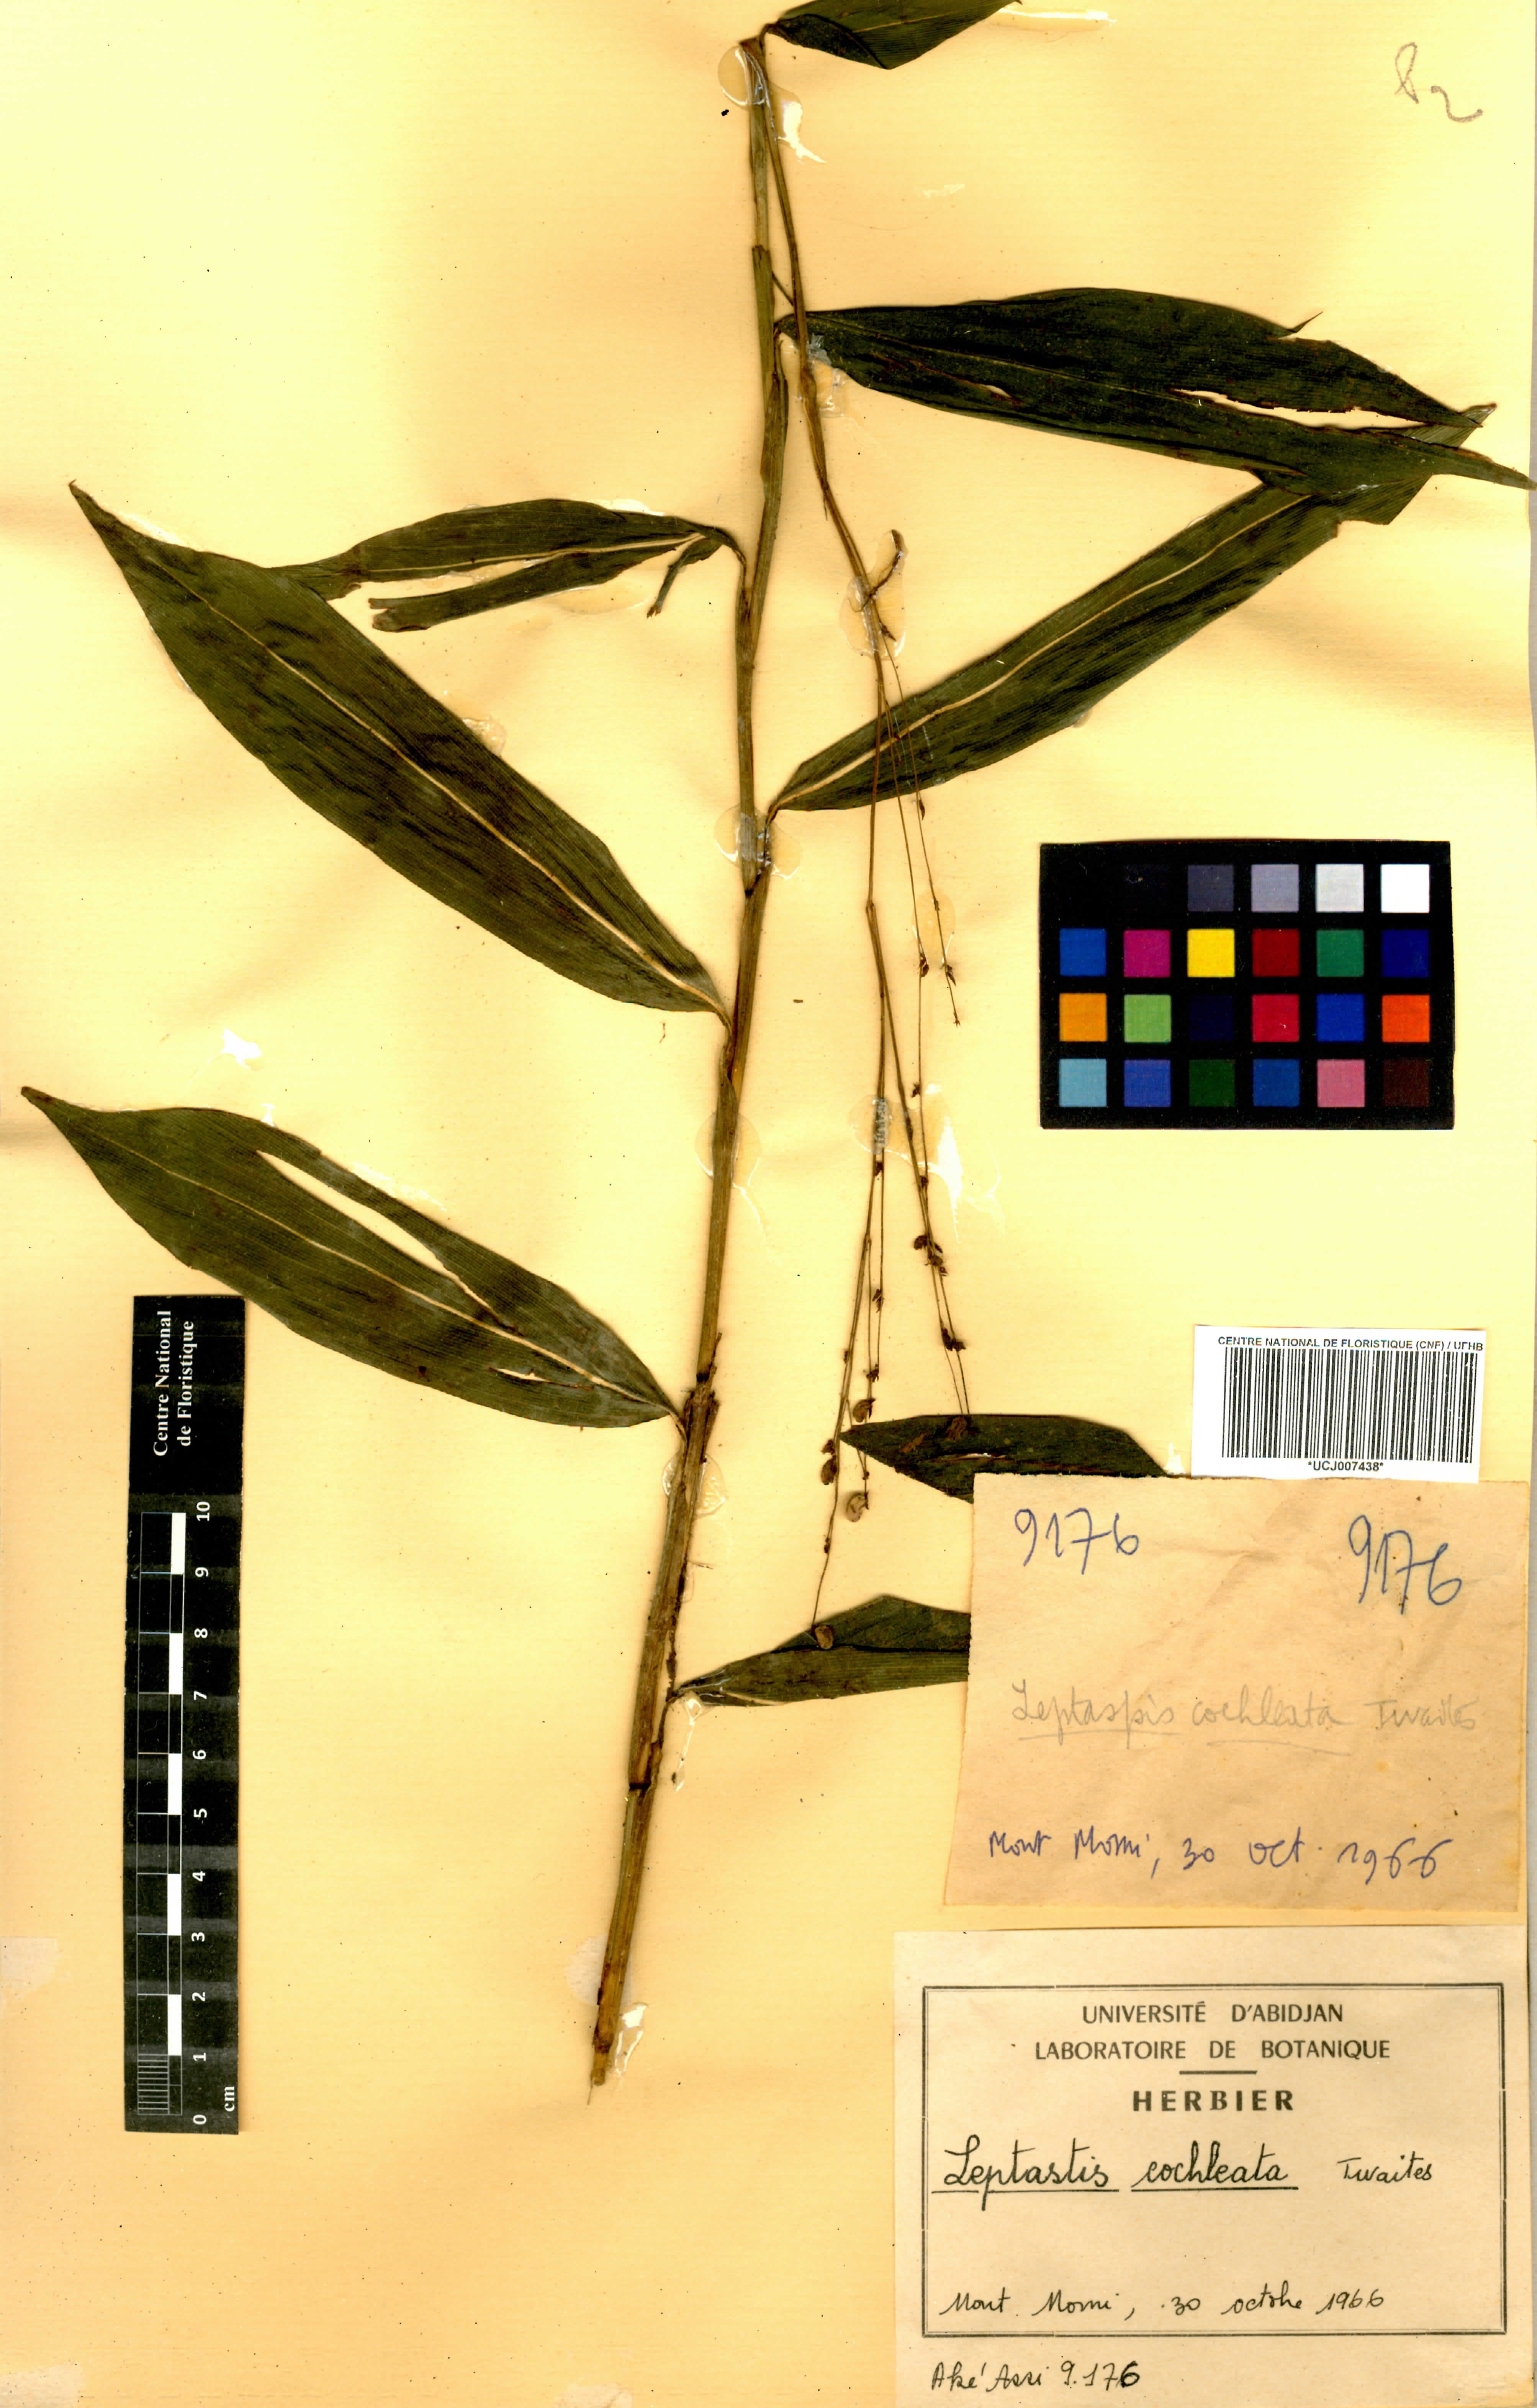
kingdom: Plantae
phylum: Tracheophyta
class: Liliopsida
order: Poales
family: Poaceae
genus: Leptaspis
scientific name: Leptaspis zeylanica
